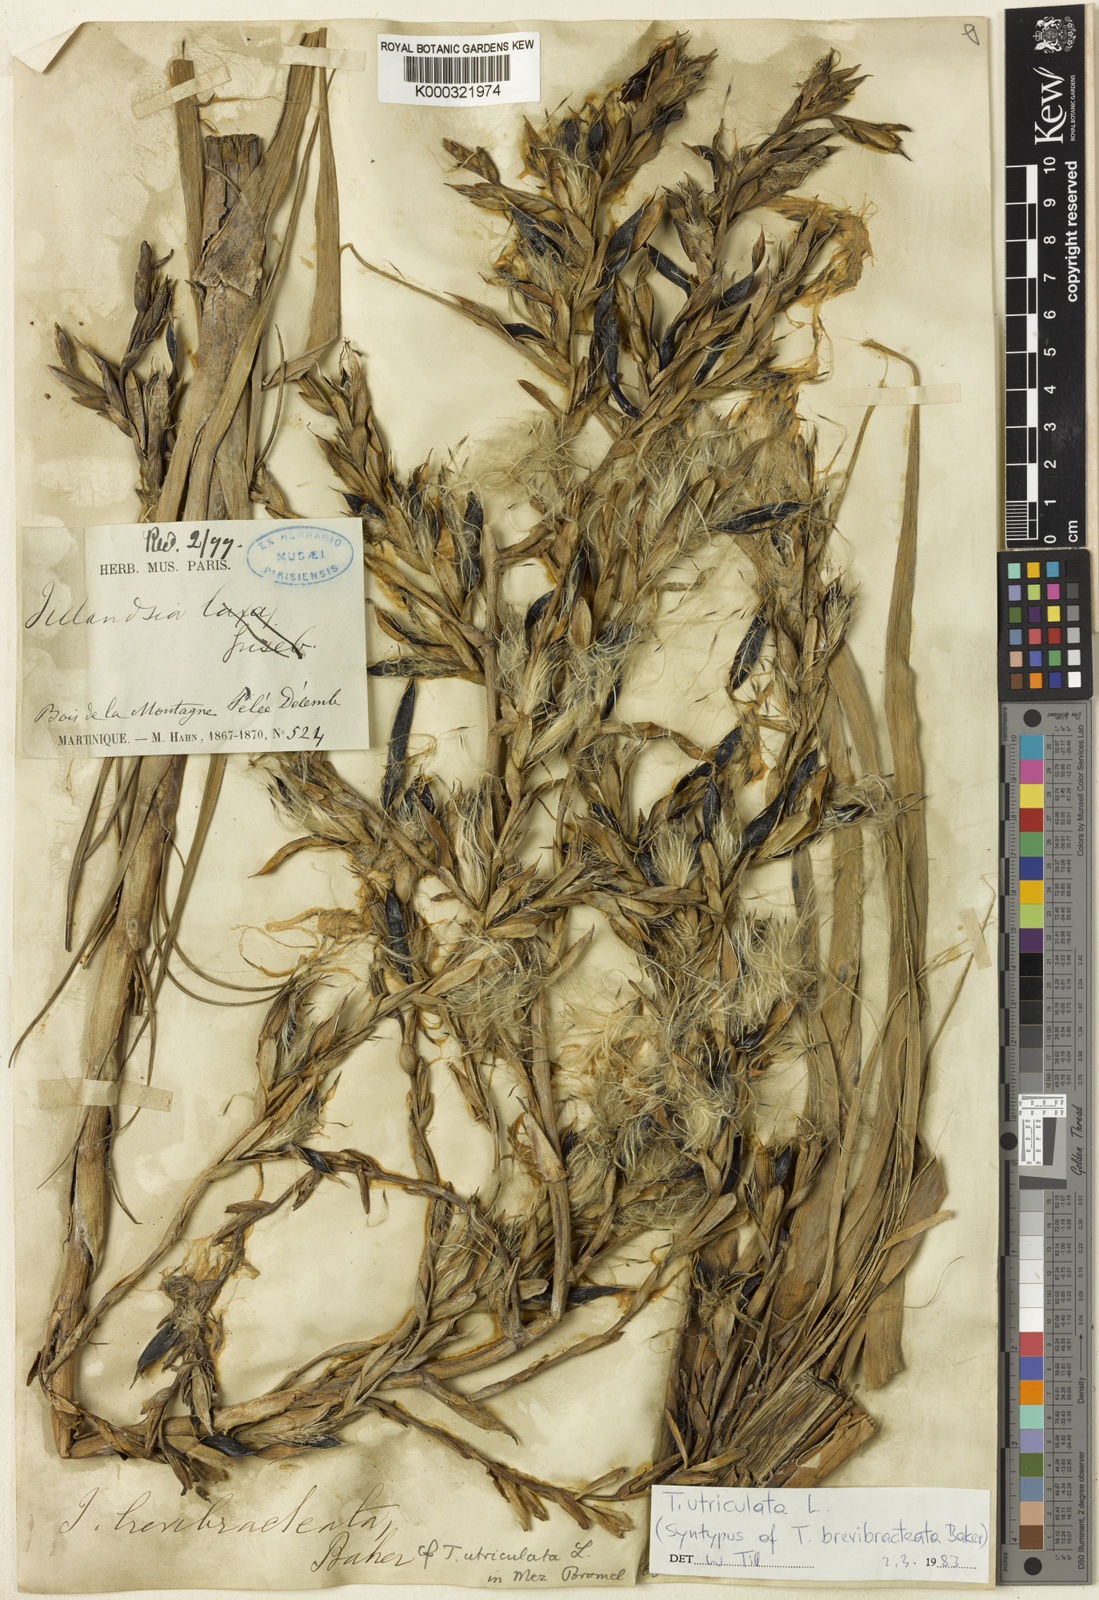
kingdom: Plantae
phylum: Tracheophyta
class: Liliopsida
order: Poales
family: Bromeliaceae
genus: Tillandsia
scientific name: Tillandsia utriculata
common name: Wild pine
